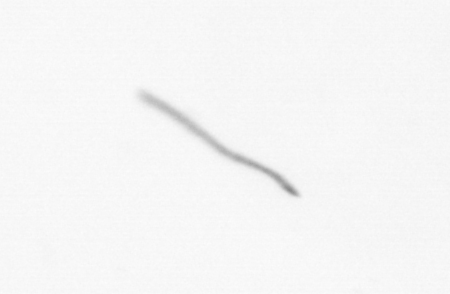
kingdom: Chromista
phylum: Ochrophyta
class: Bacillariophyceae
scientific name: Bacillariophyceae
